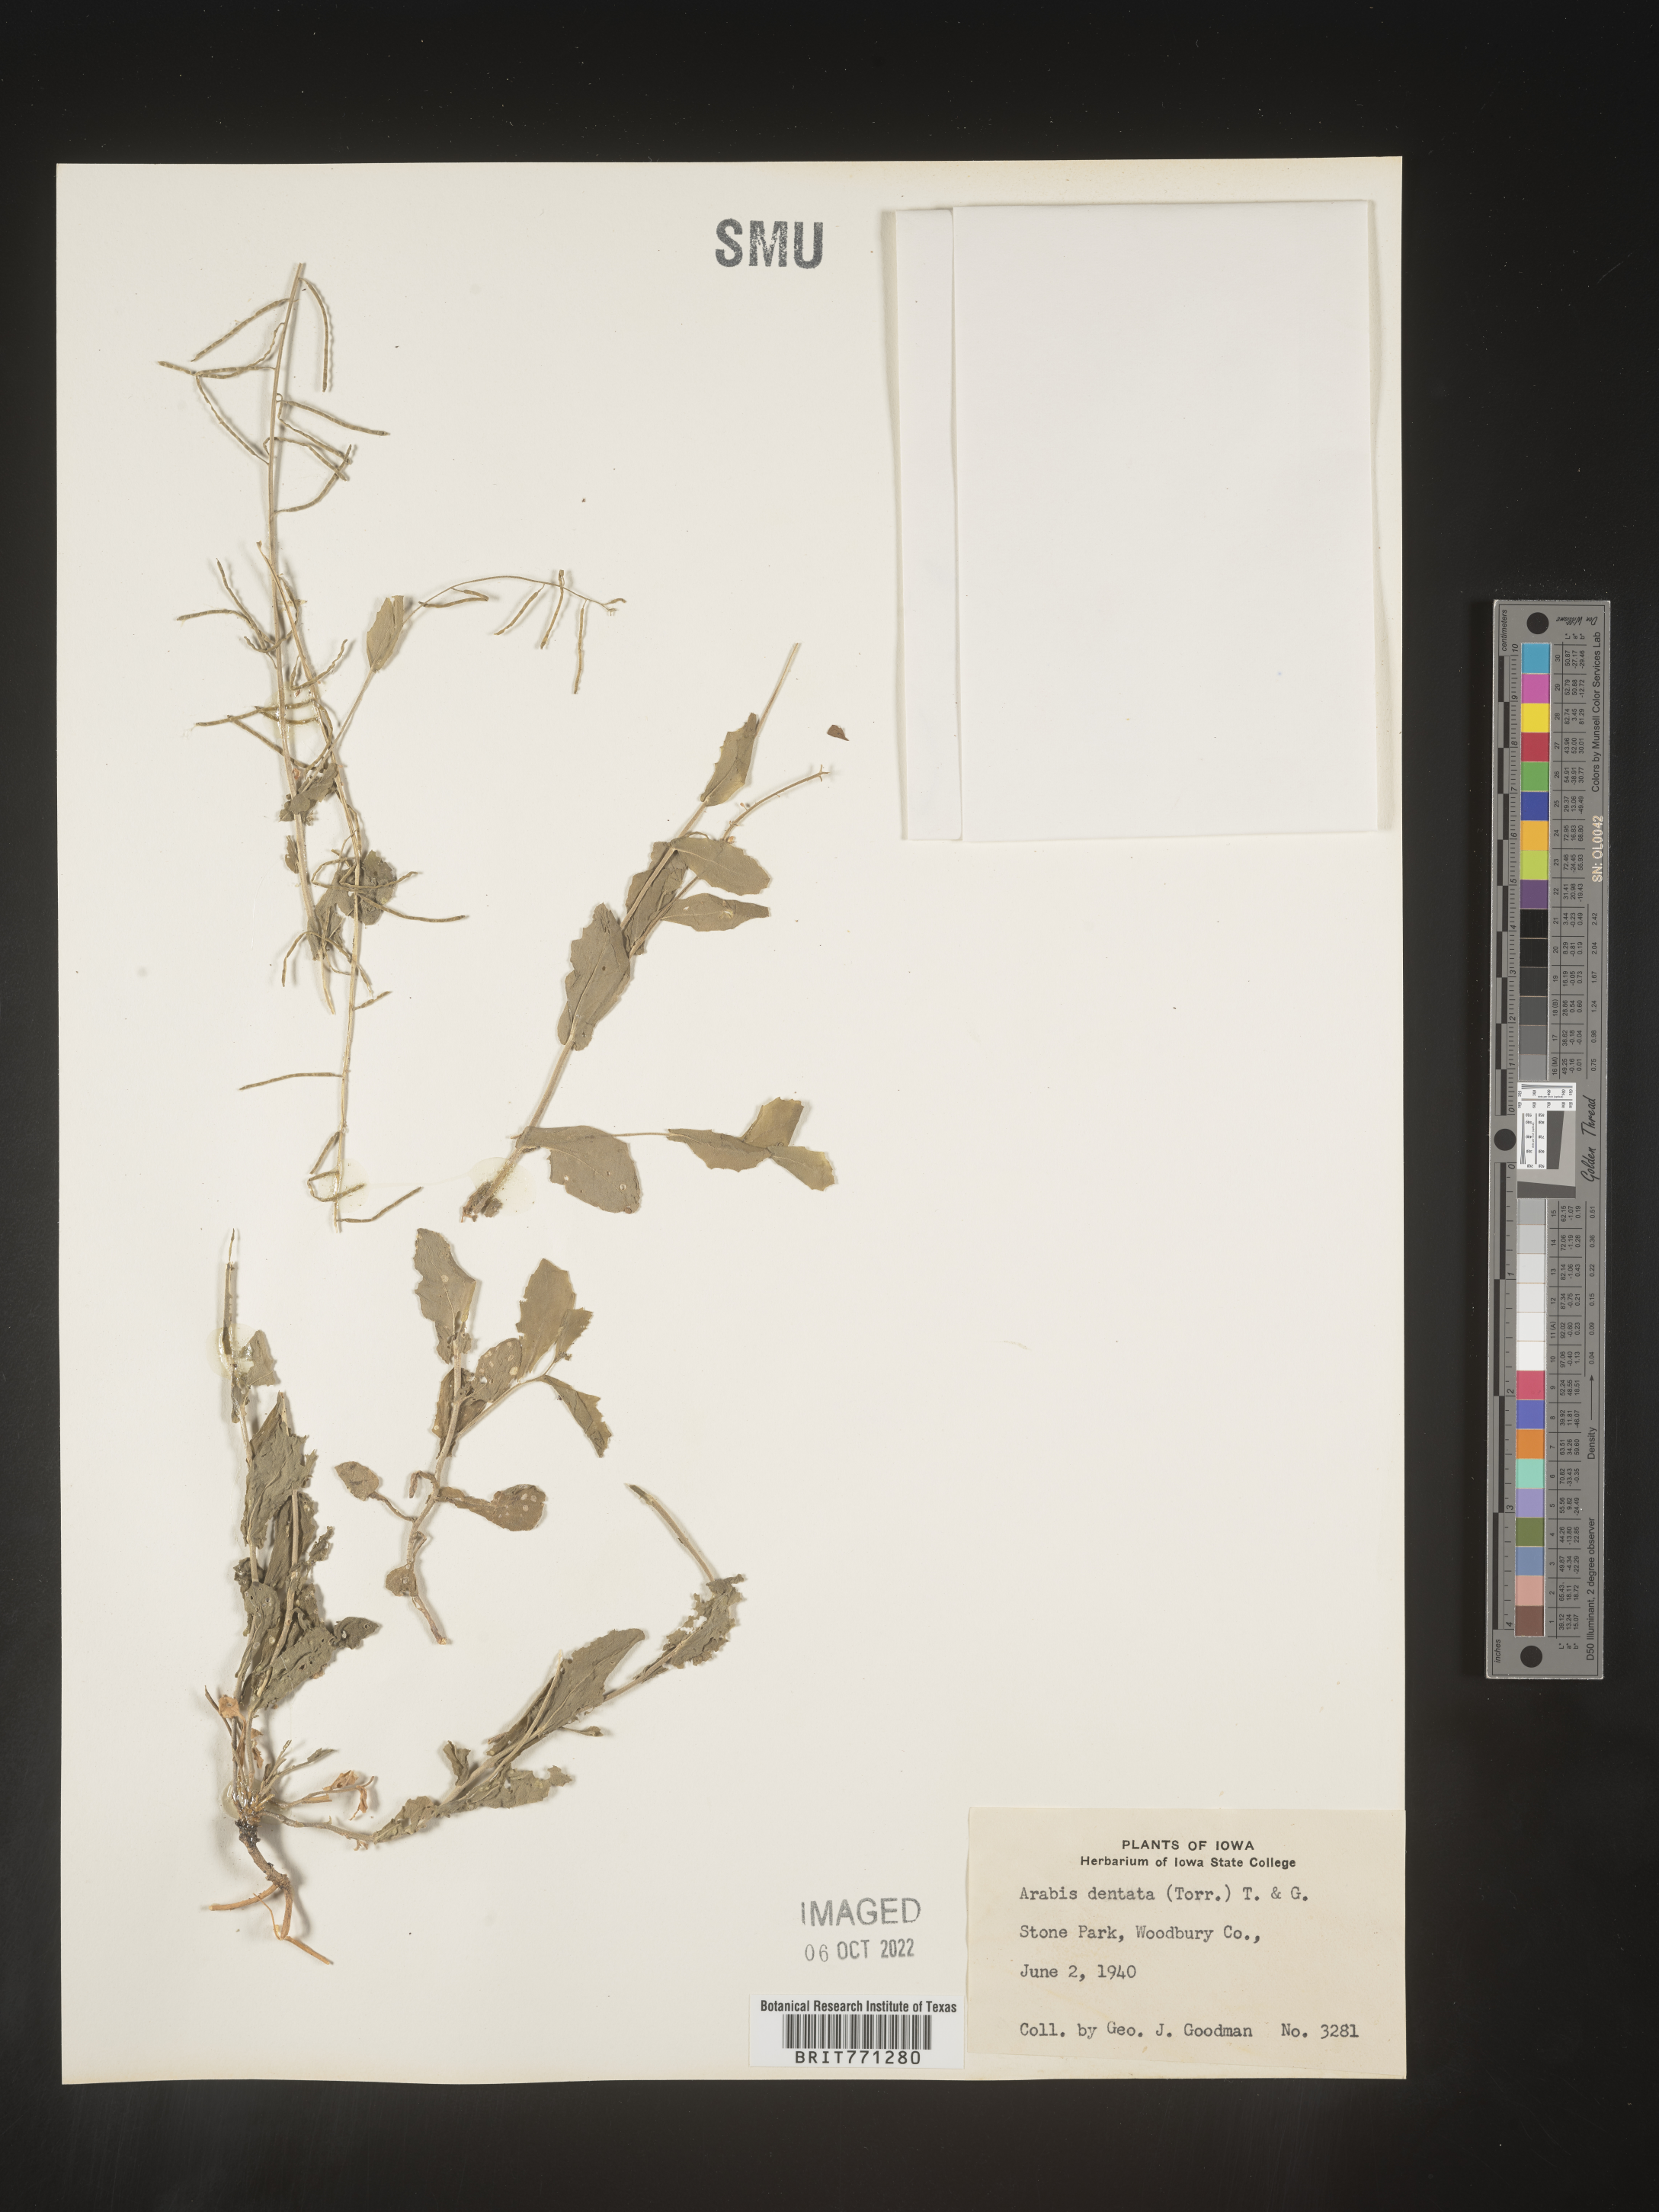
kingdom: Plantae
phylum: Tracheophyta
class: Magnoliopsida
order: Brassicales
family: Brassicaceae
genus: Arabis
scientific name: Arabis
